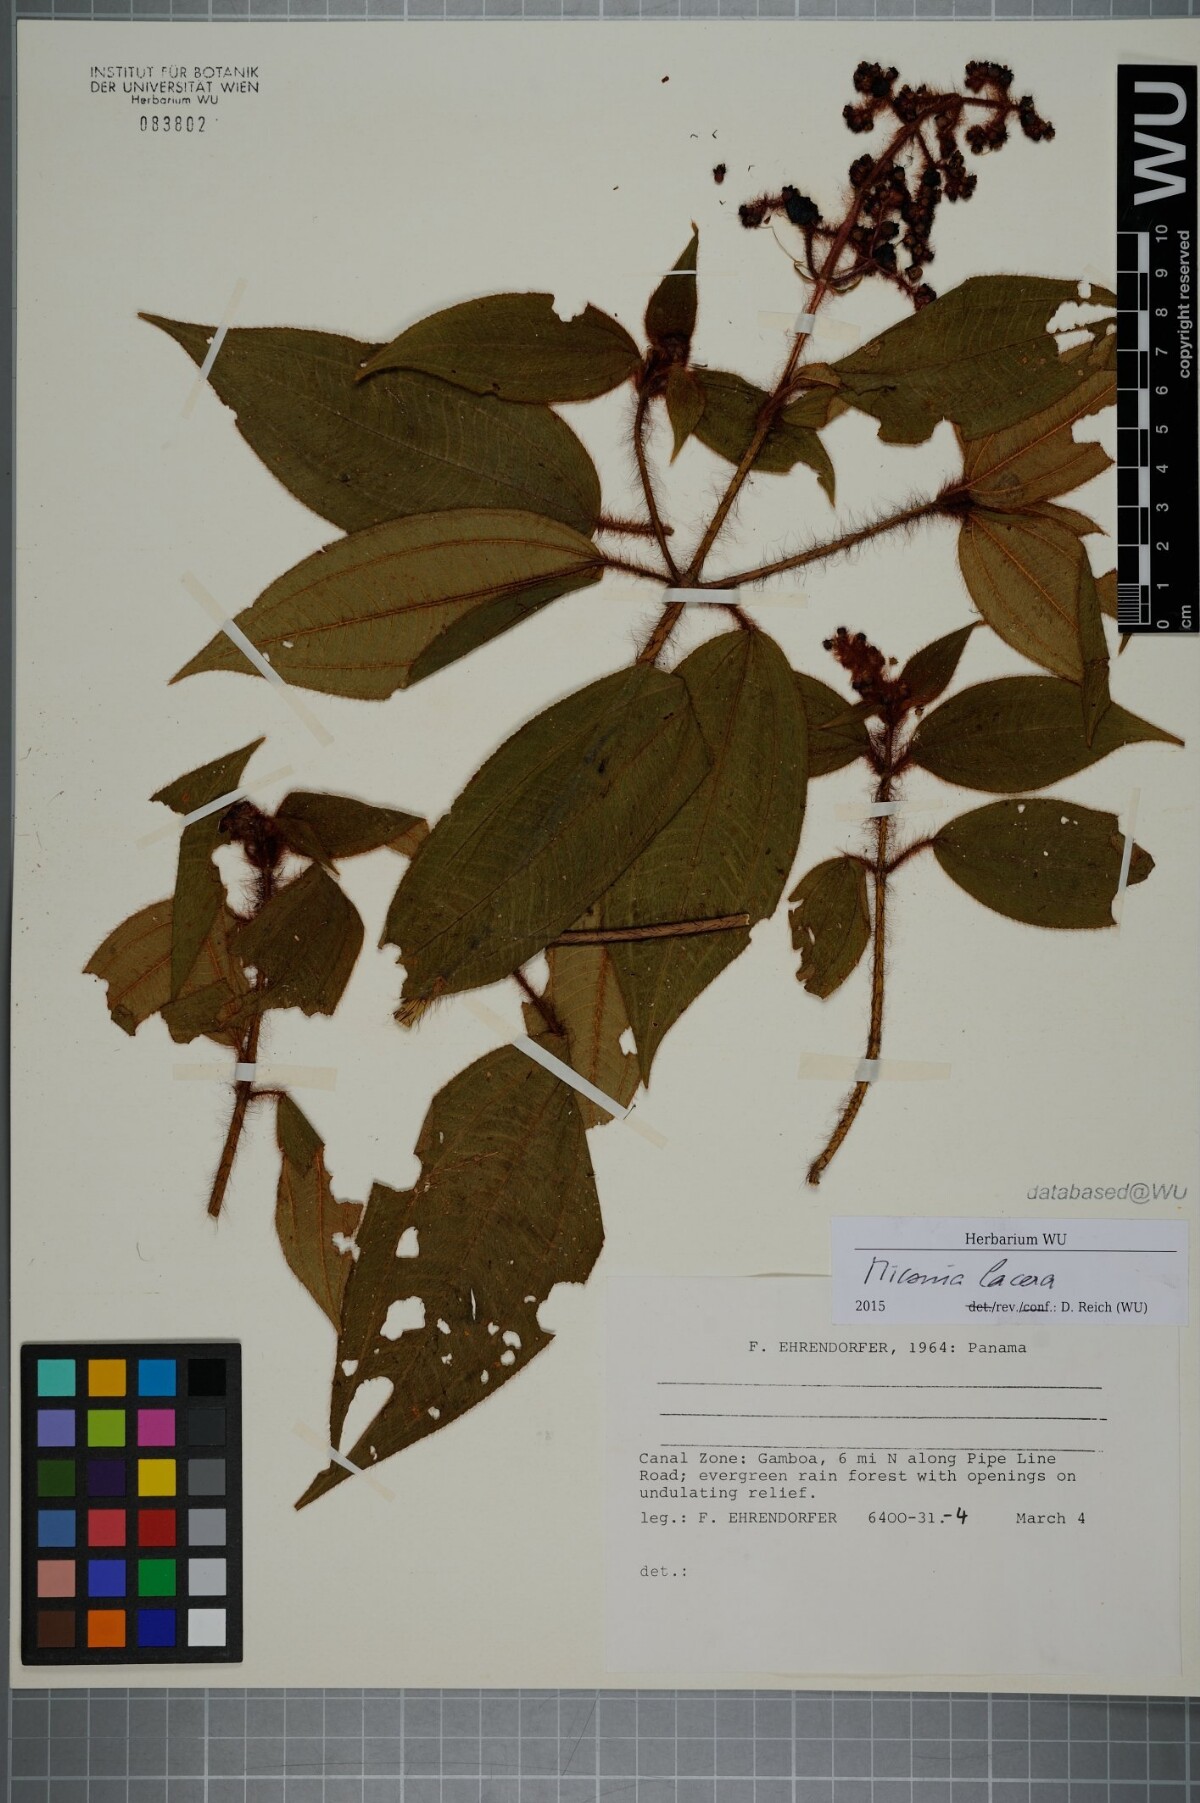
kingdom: Plantae
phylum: Tracheophyta
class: Magnoliopsida
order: Myrtales
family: Melastomataceae
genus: Miconia
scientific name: Miconia lacera
